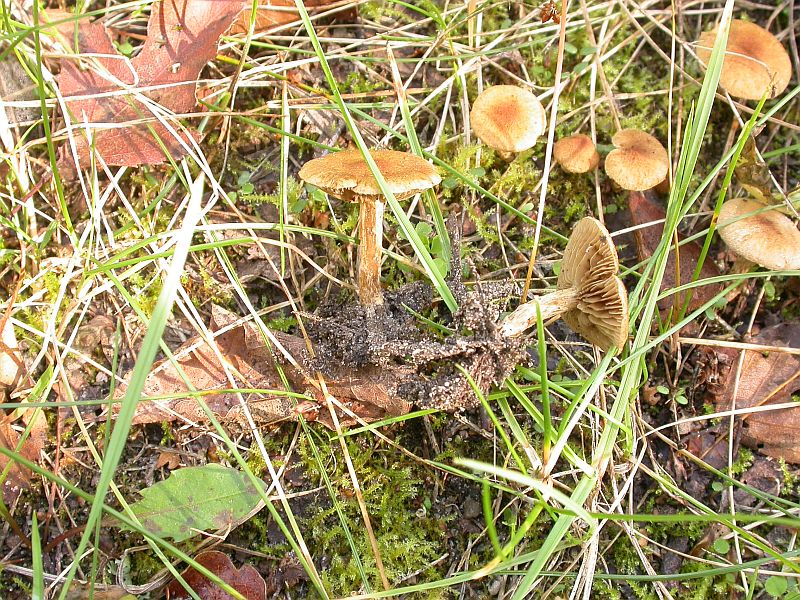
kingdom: Fungi
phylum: Basidiomycota
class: Agaricomycetes
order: Agaricales
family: Inocybaceae
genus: Inocybe
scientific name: Inocybe dulcamara
